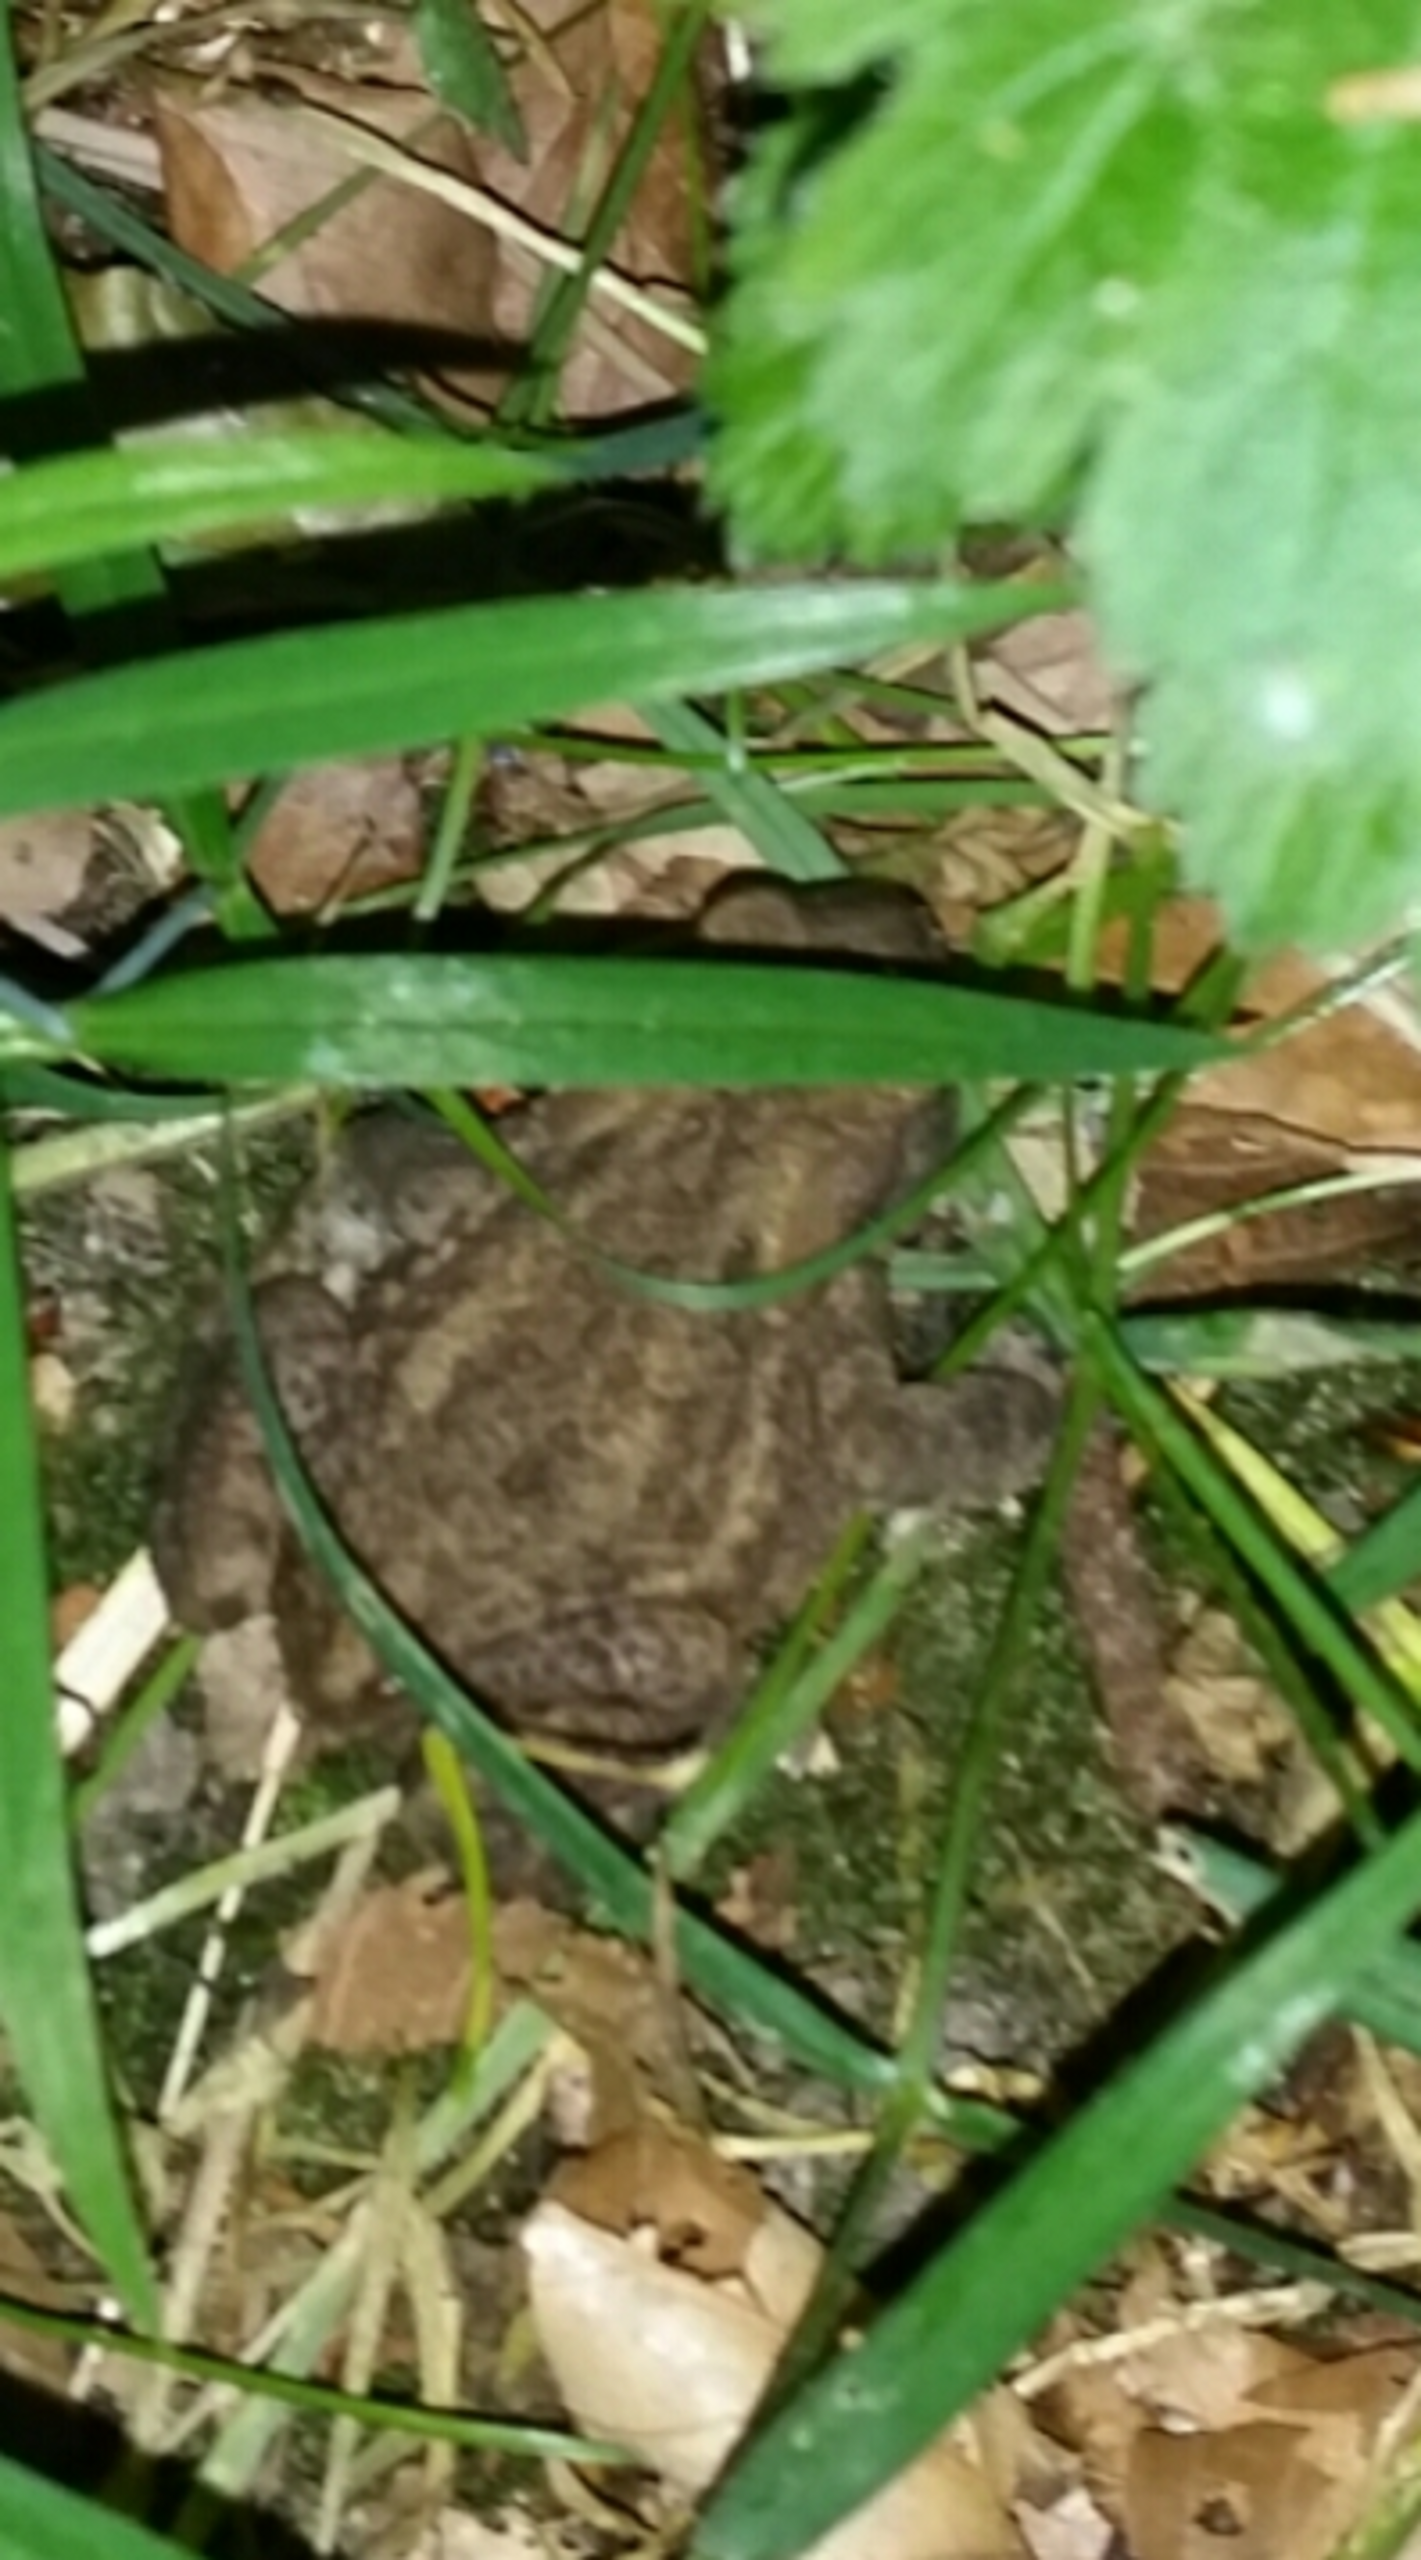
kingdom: Animalia
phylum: Chordata
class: Amphibia
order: Anura
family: Bufonidae
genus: Bufo
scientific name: Bufo bufo
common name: Skrubtudse
